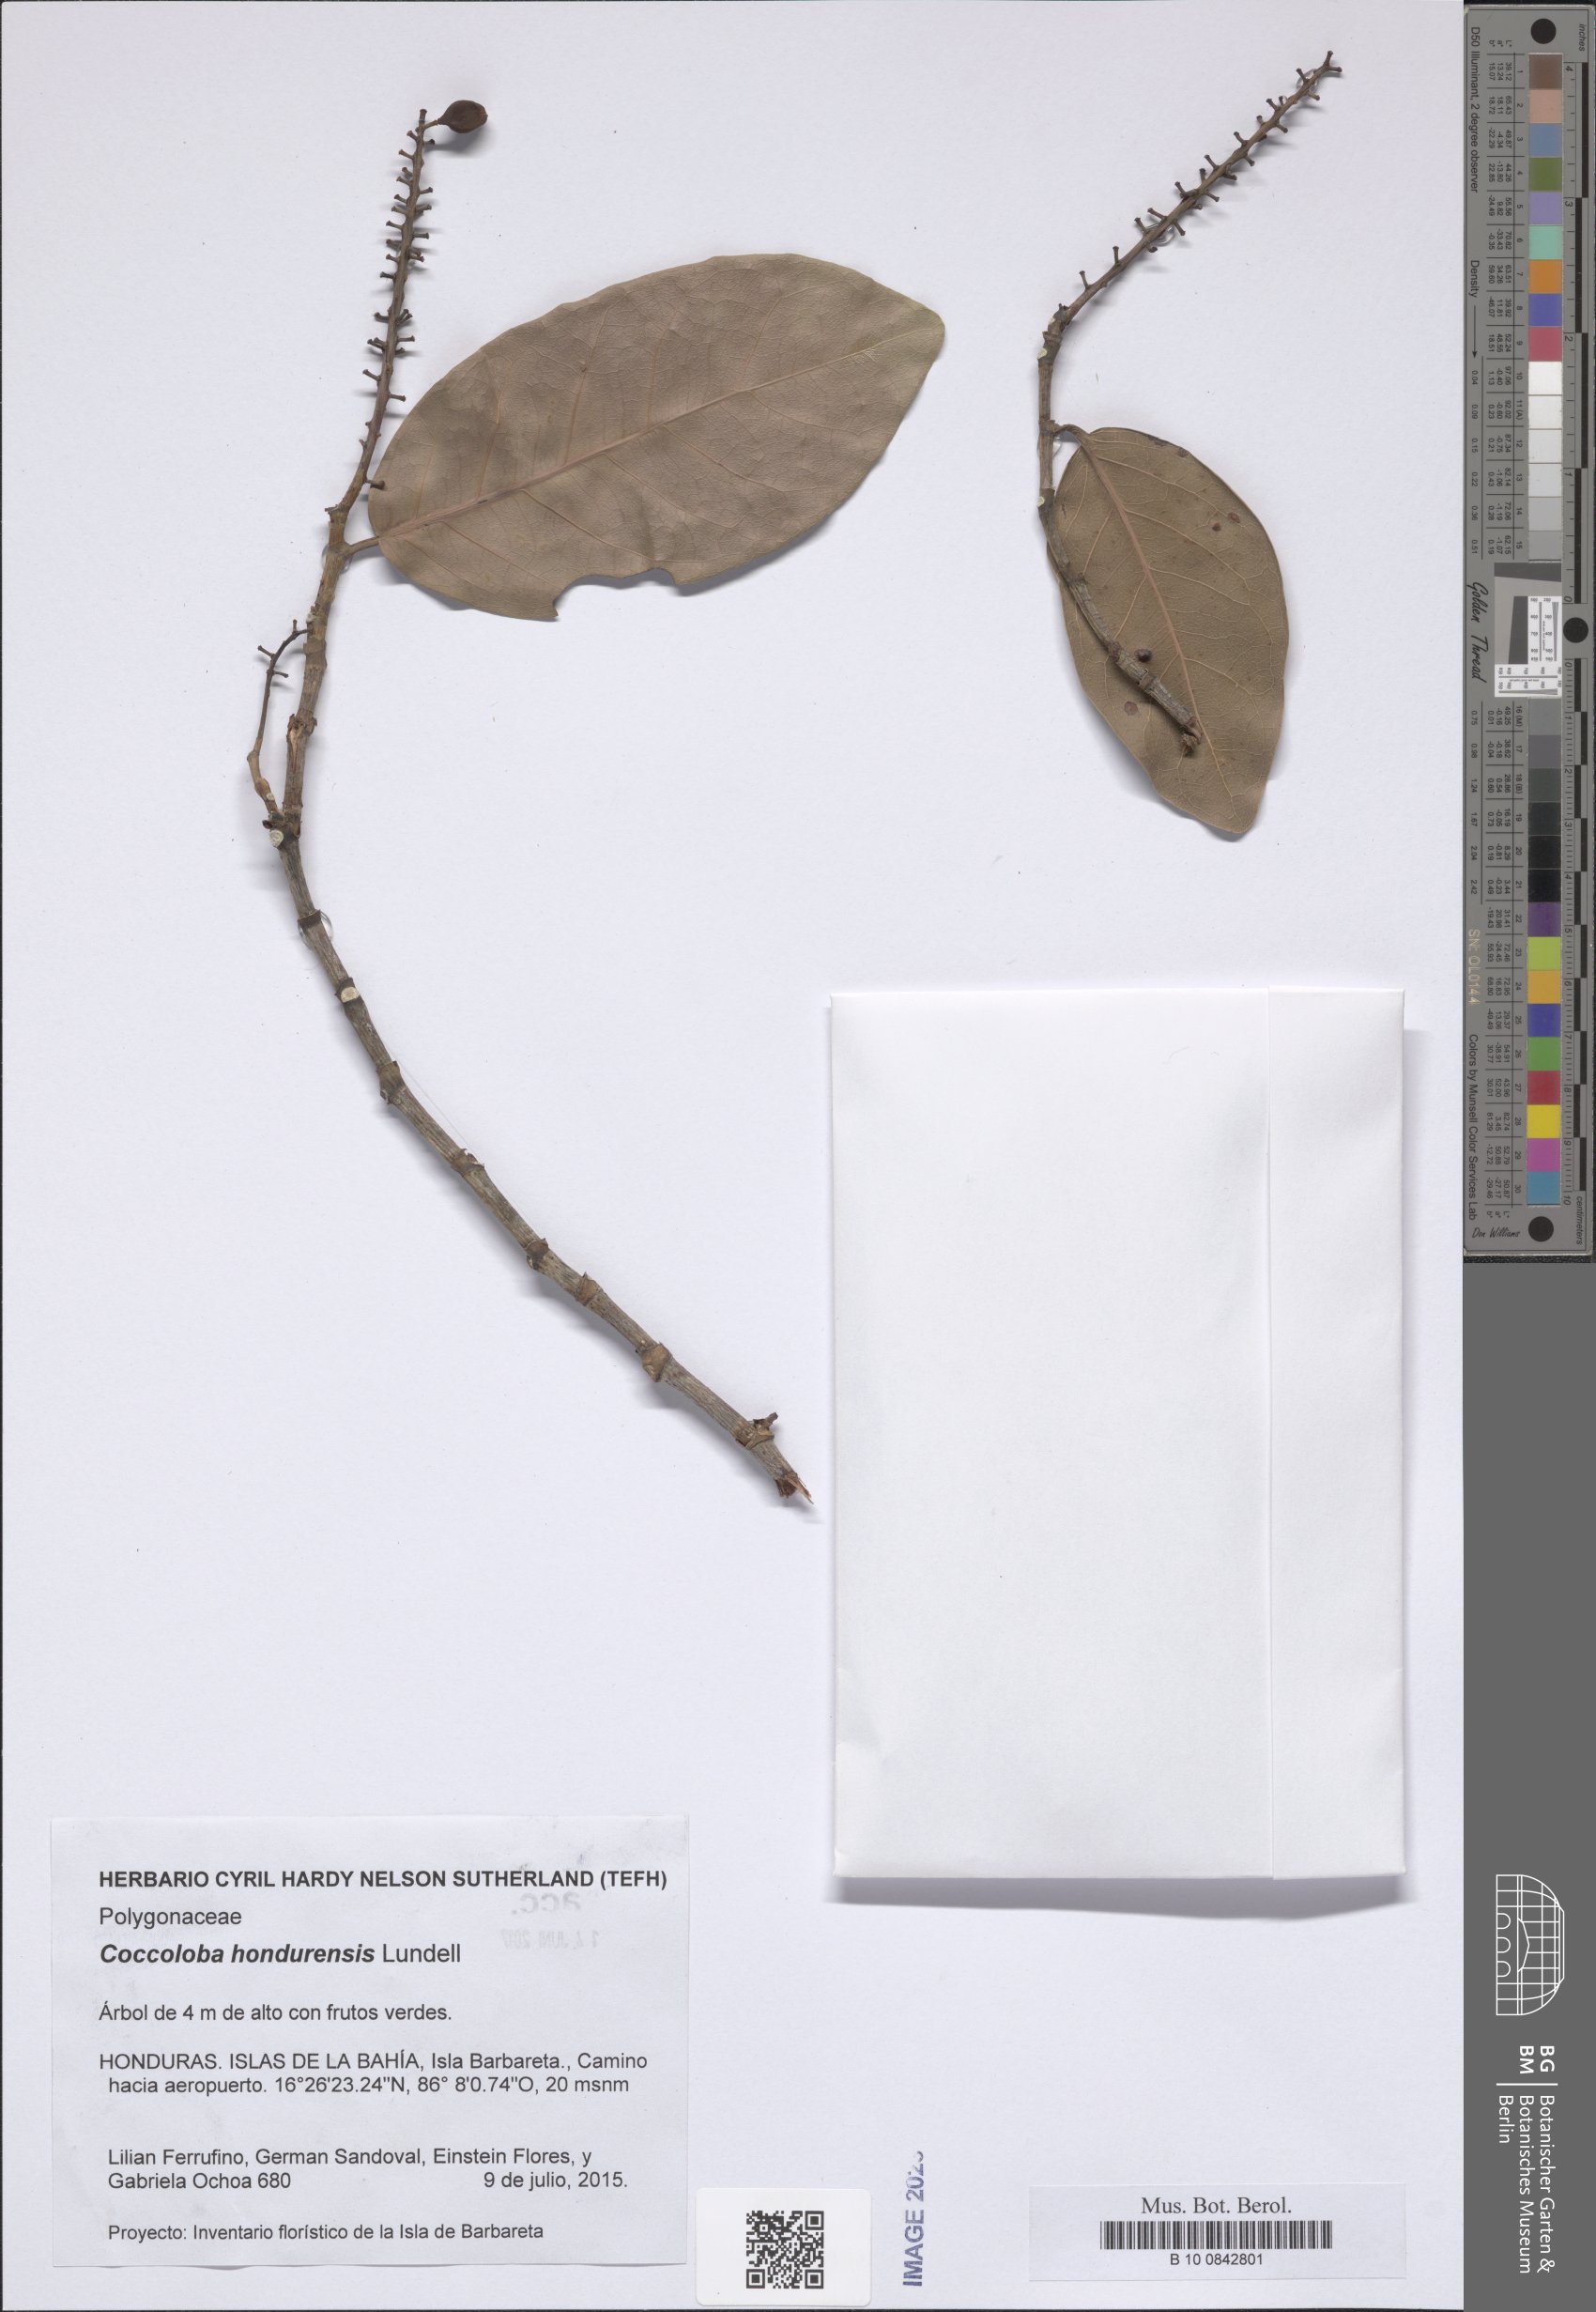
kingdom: Plantae
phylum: Tracheophyta
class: Magnoliopsida
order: Caryophyllales
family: Polygonaceae
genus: Coccoloba
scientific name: Coccoloba hondurensis
